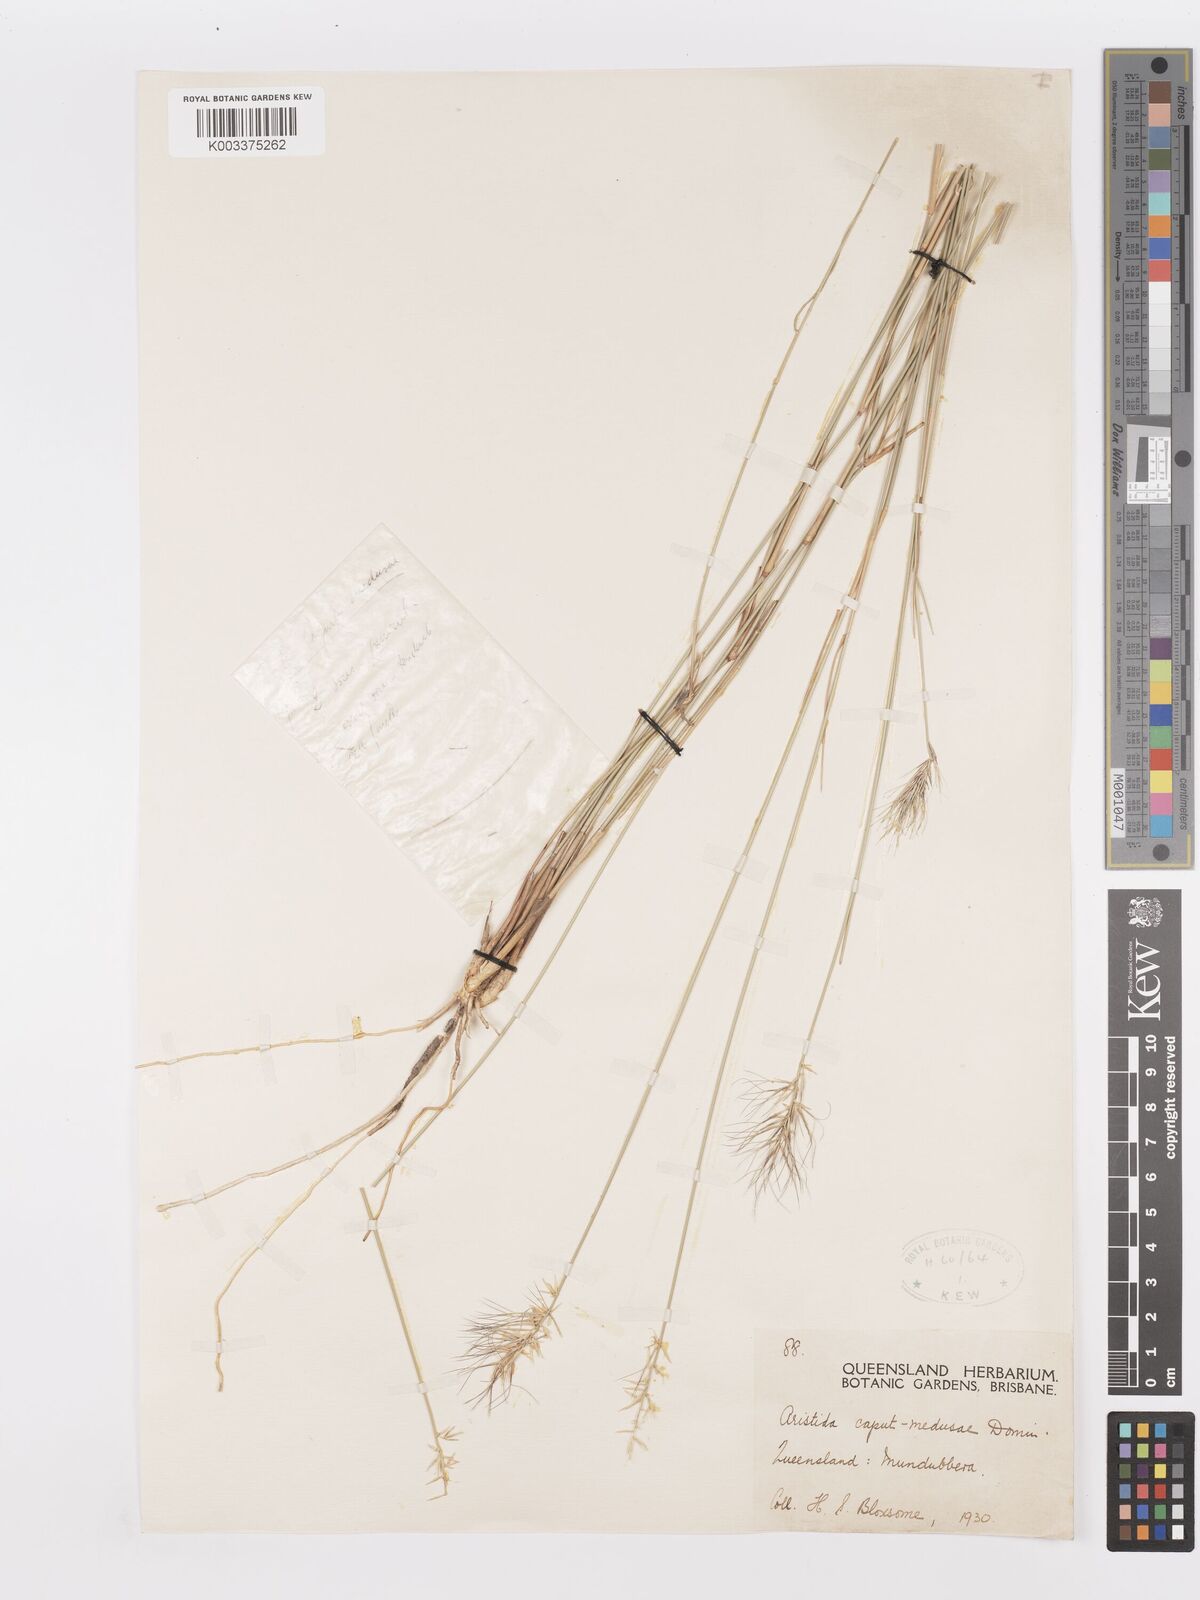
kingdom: Plantae
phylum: Tracheophyta
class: Liliopsida
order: Poales
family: Poaceae
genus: Aristida
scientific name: Aristida caput-medusae
